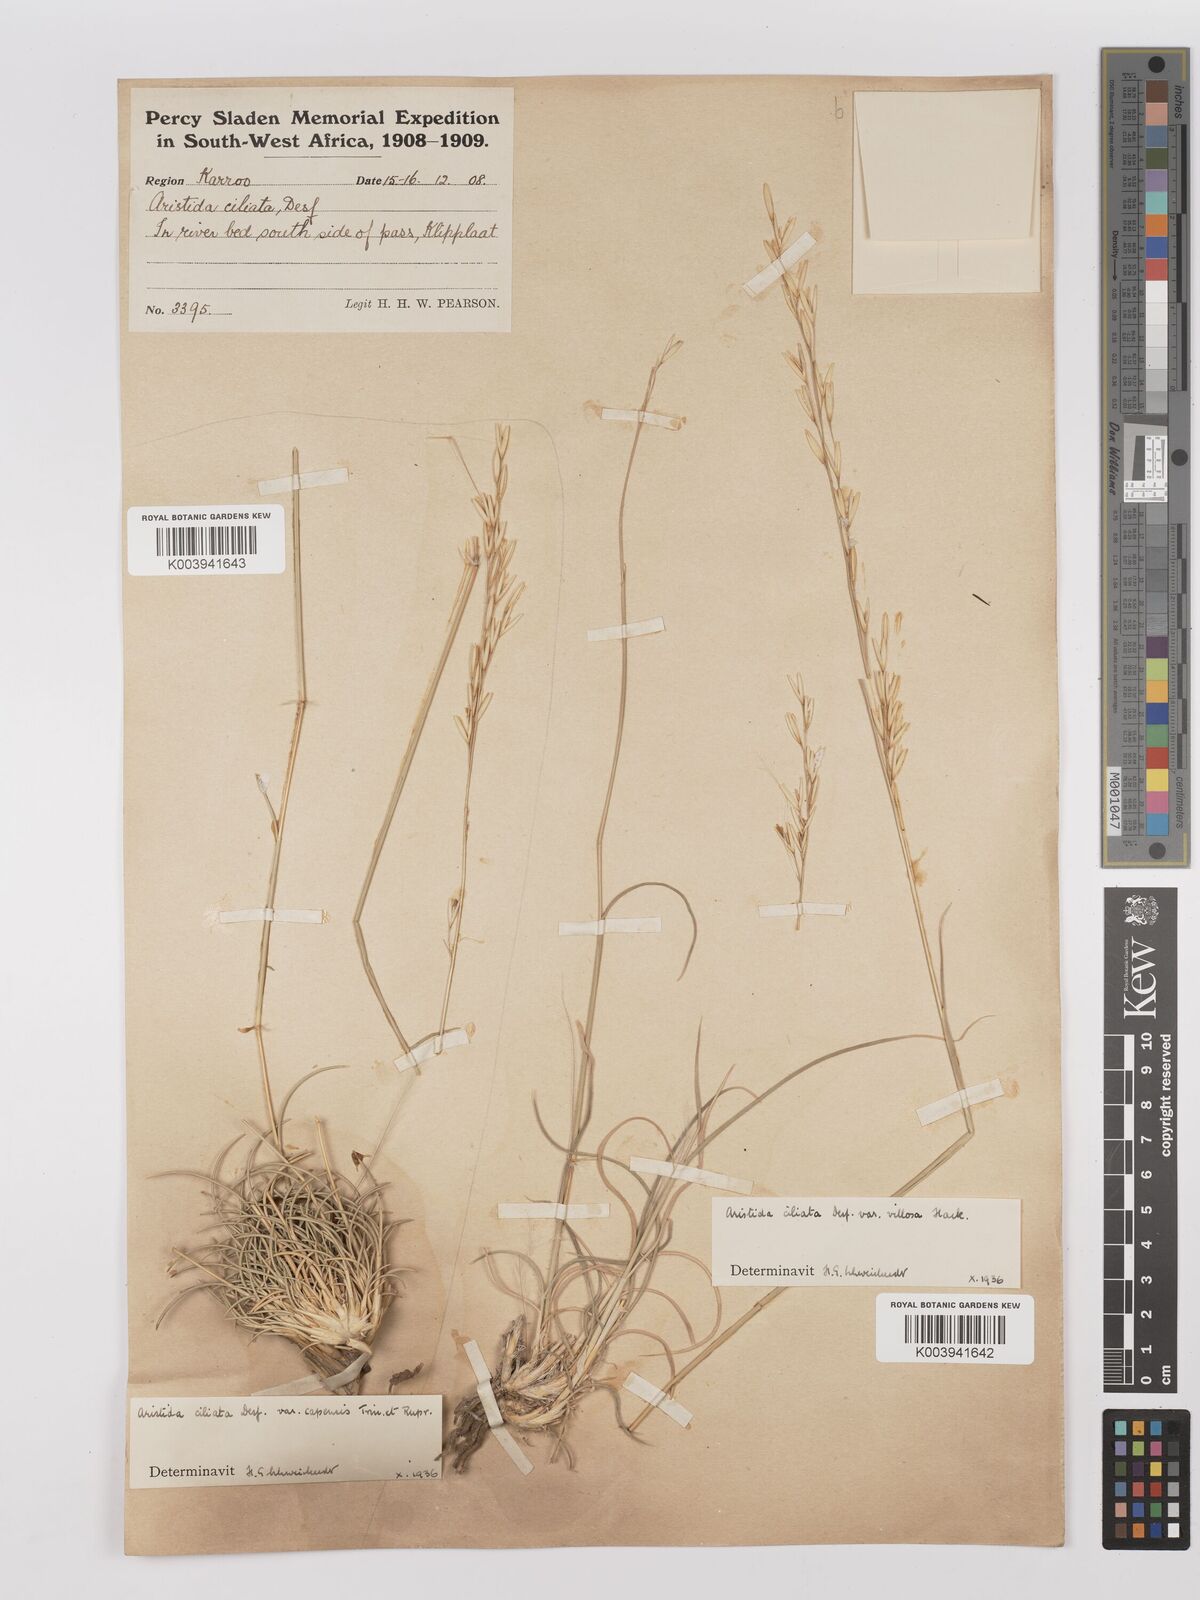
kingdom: Plantae
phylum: Tracheophyta
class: Liliopsida
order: Poales
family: Poaceae
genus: Stipagrostis
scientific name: Stipagrostis ciliata
